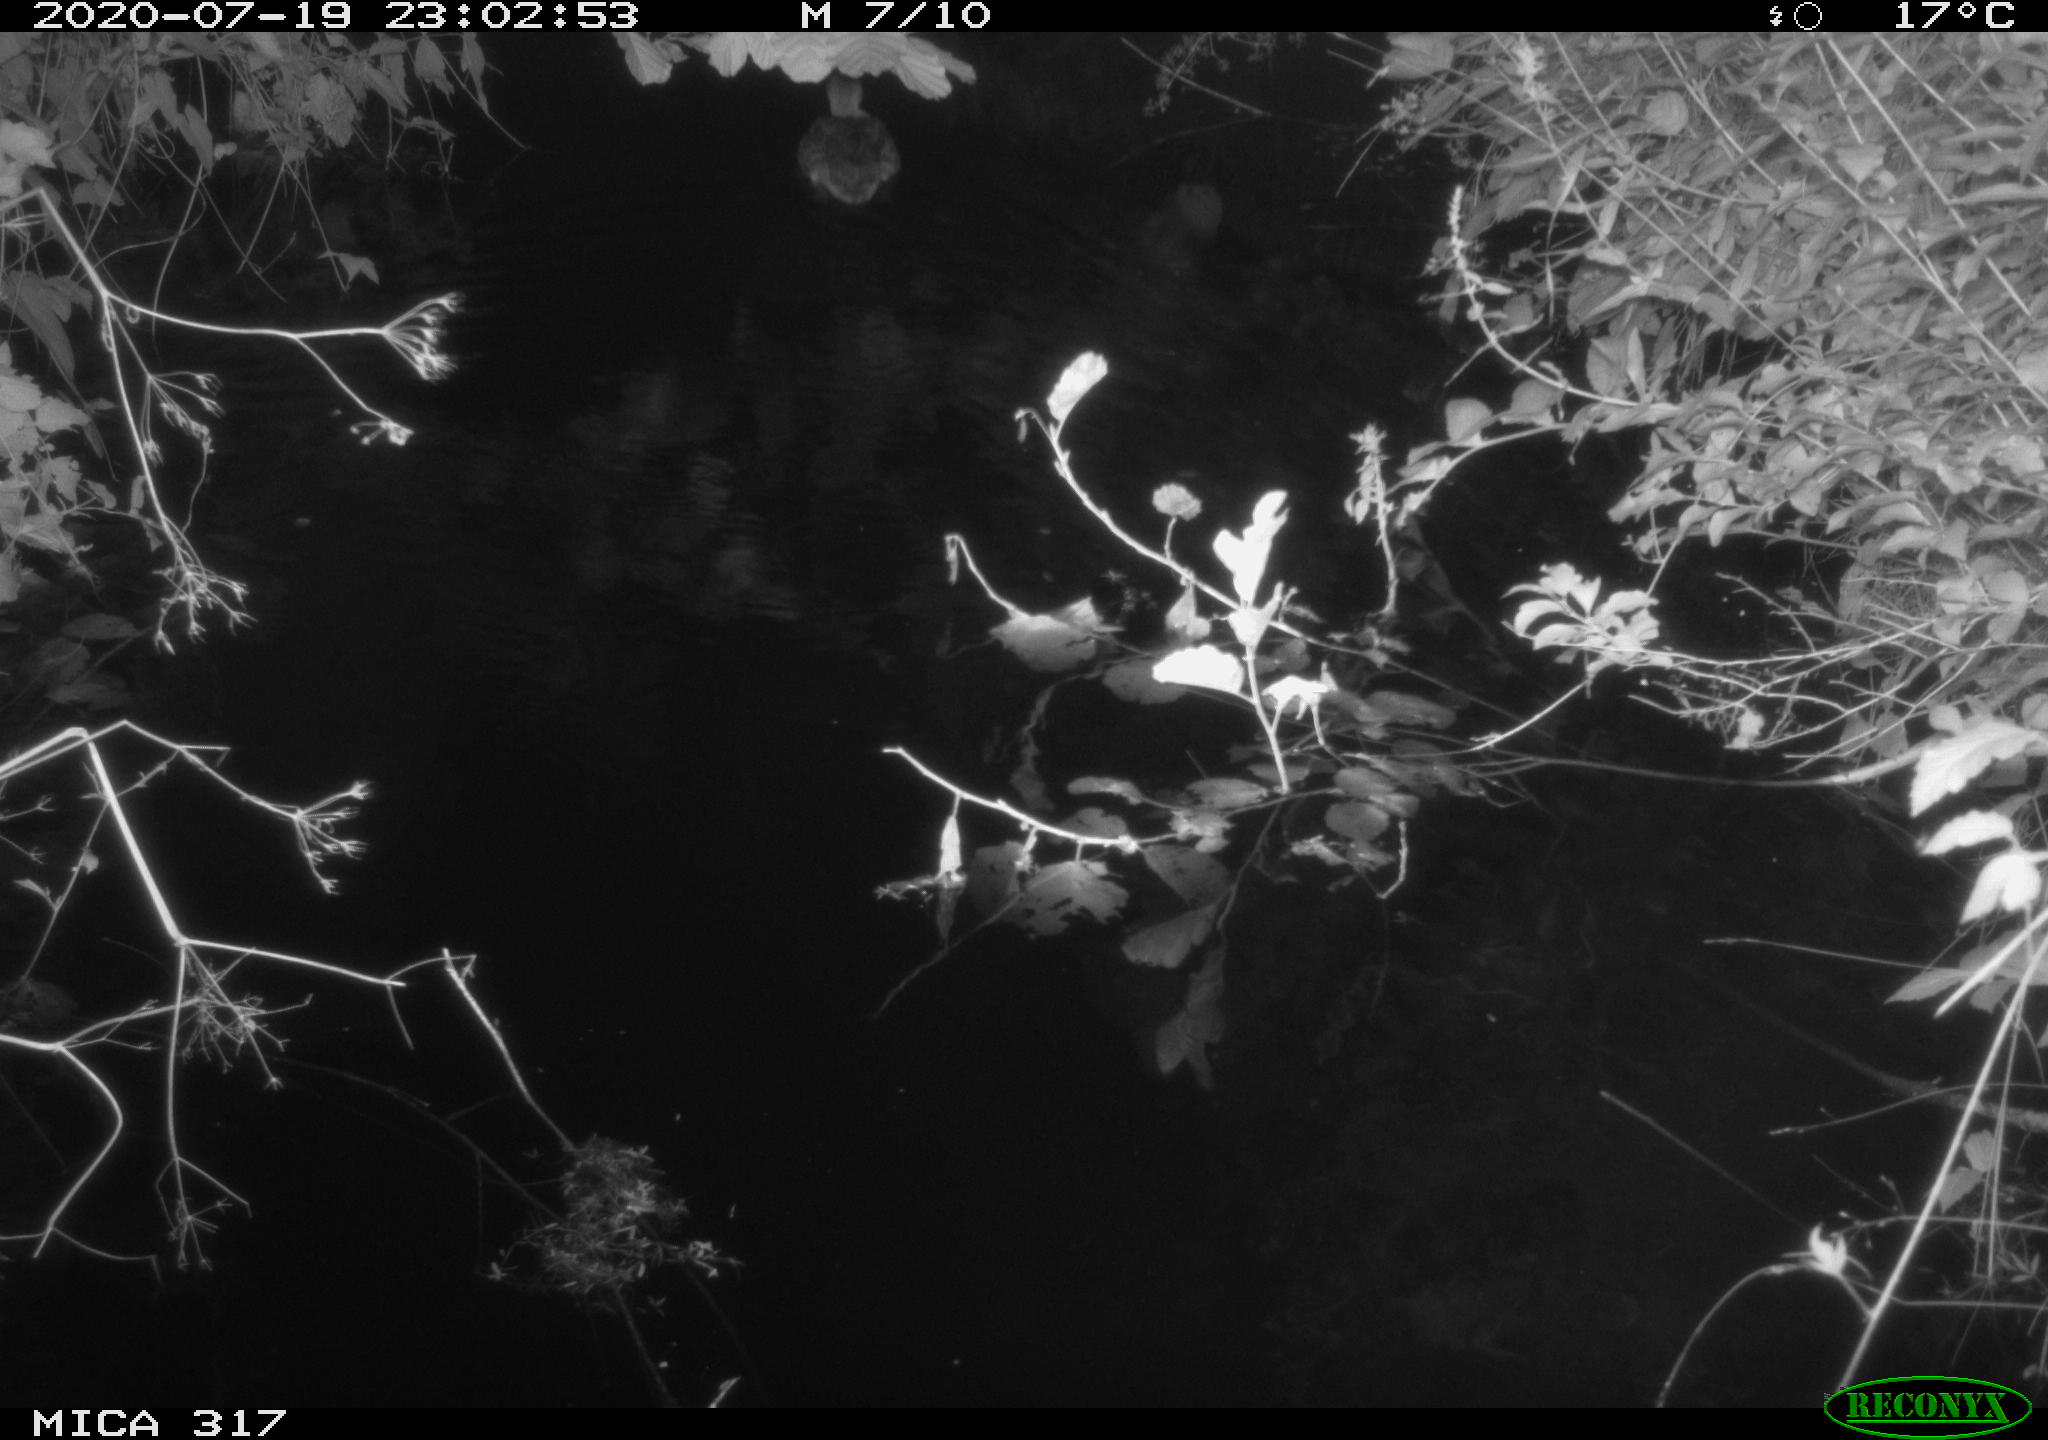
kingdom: Animalia
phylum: Chordata
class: Aves
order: Anseriformes
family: Anatidae
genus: Anas
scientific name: Anas platyrhynchos
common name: Mallard
